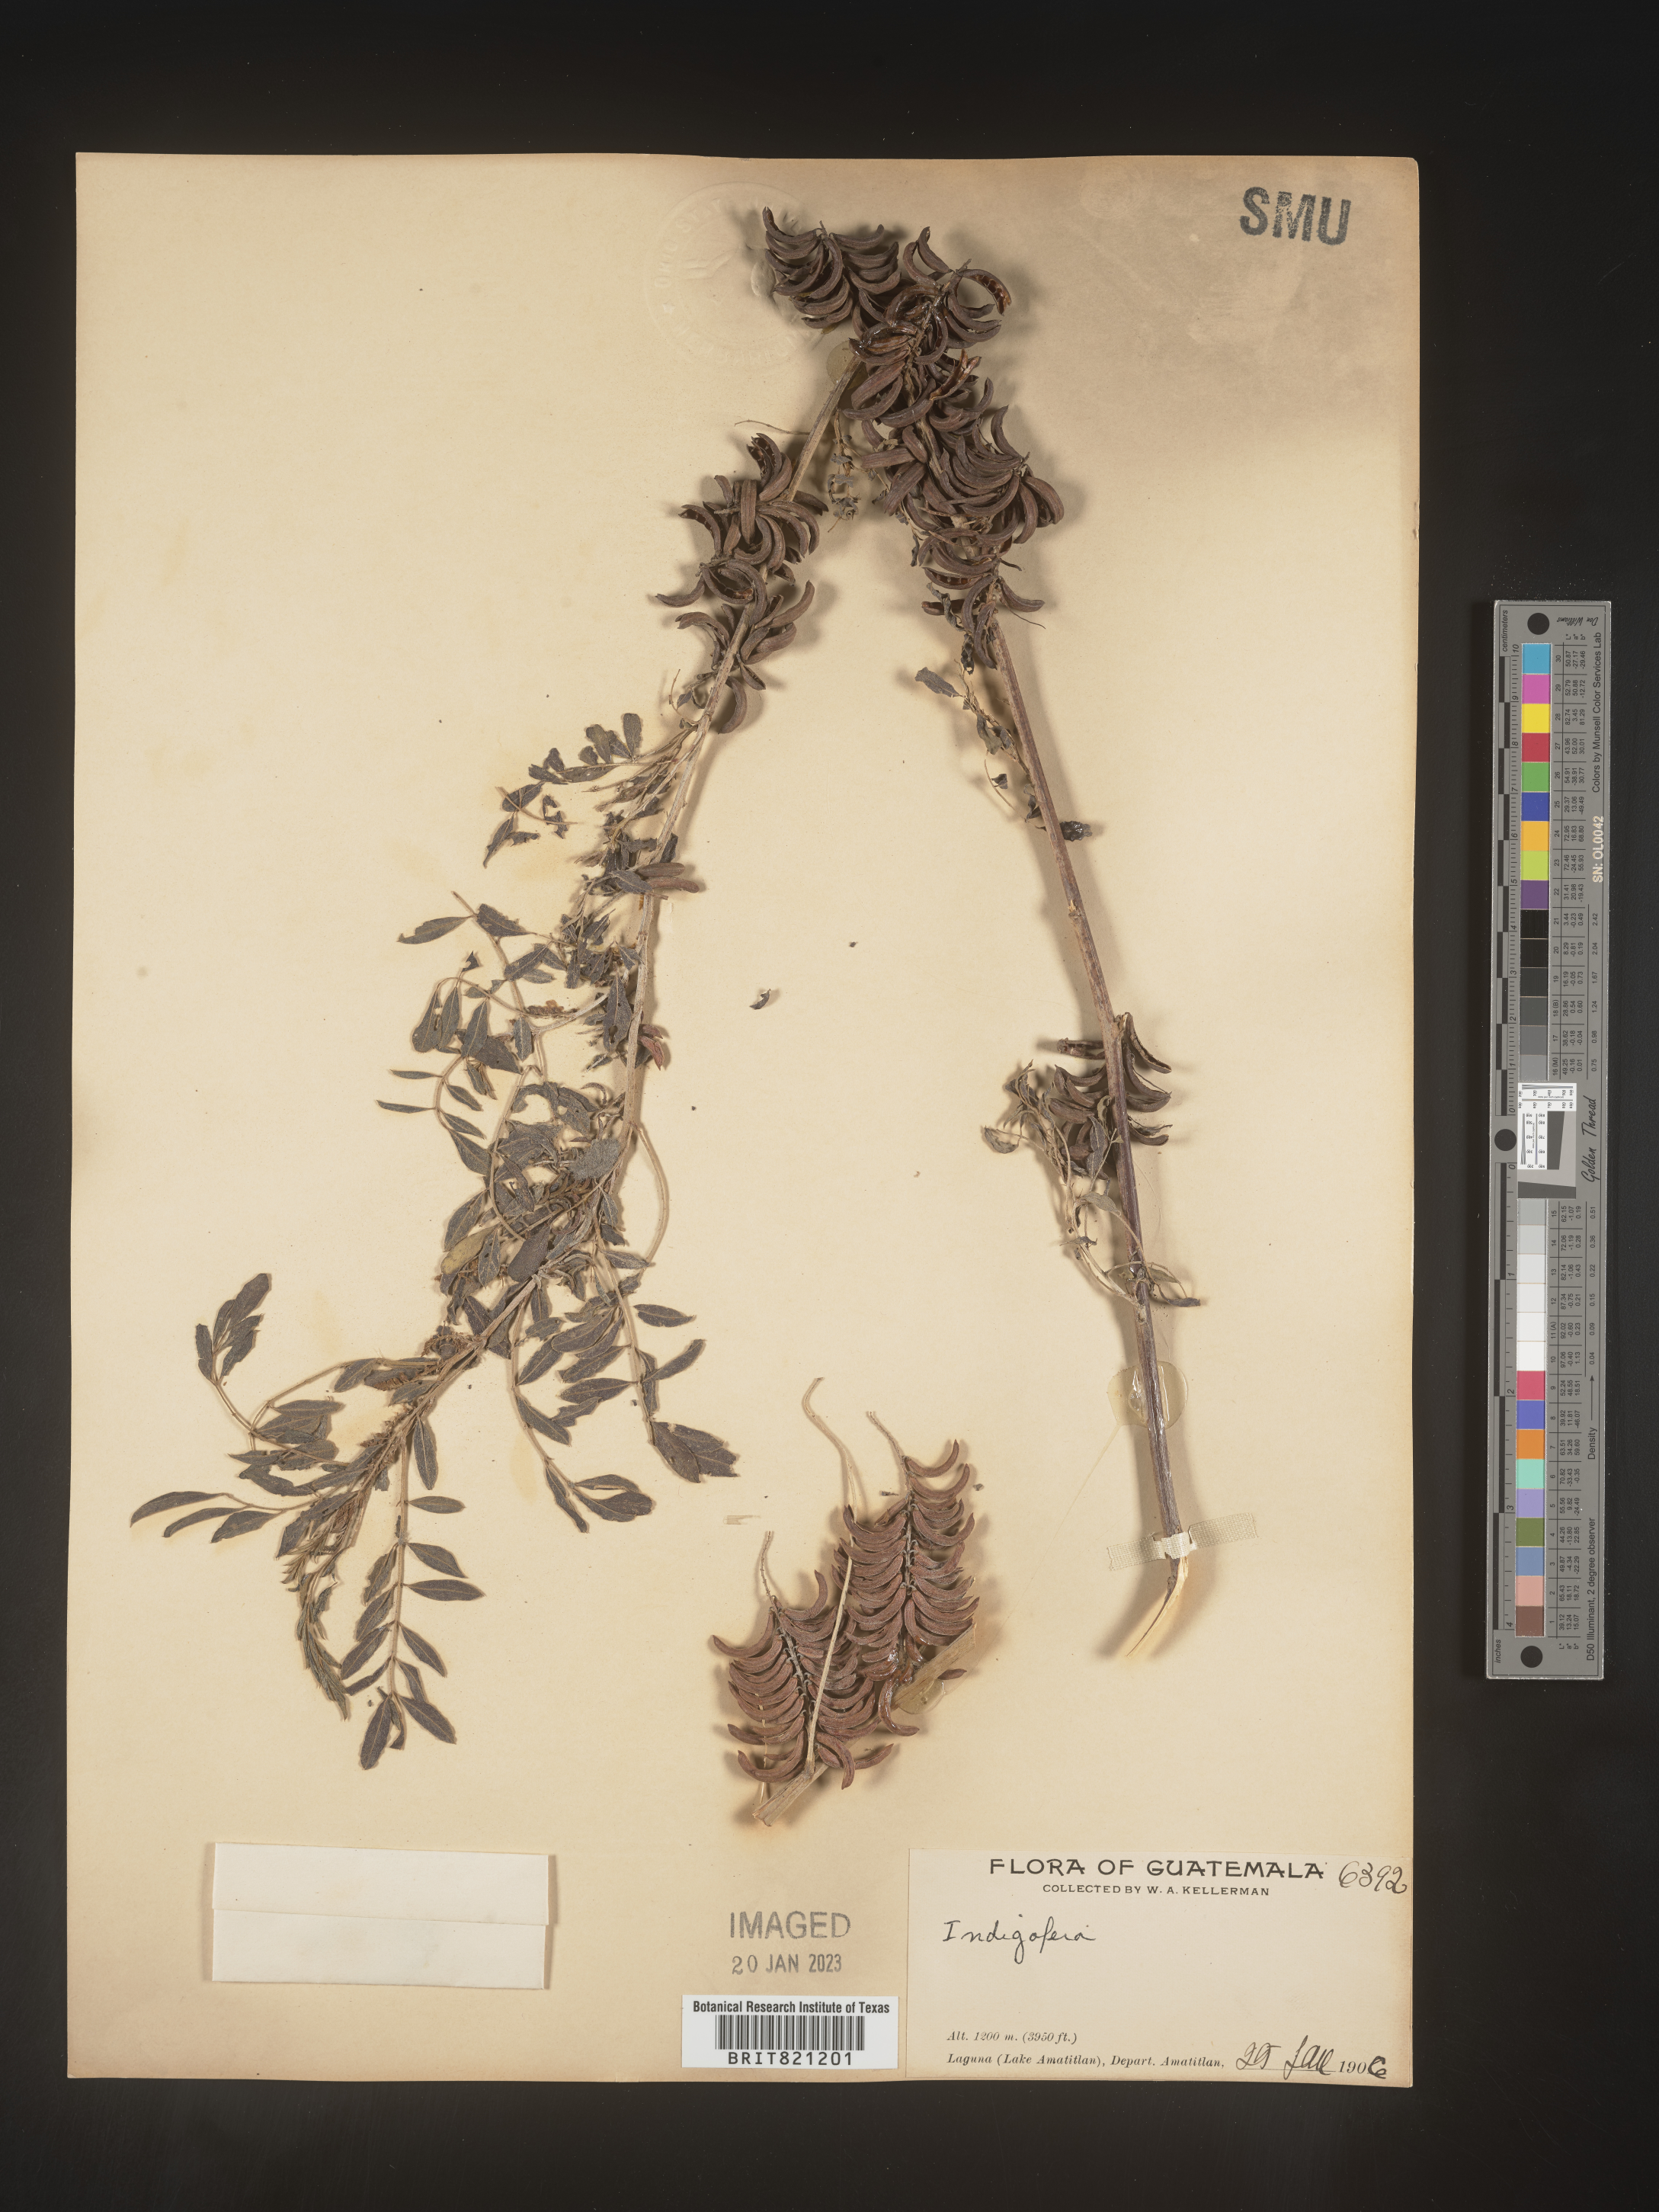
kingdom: Plantae
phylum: Tracheophyta
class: Magnoliopsida
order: Fabales
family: Fabaceae
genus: Indigofera
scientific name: Indigofera
